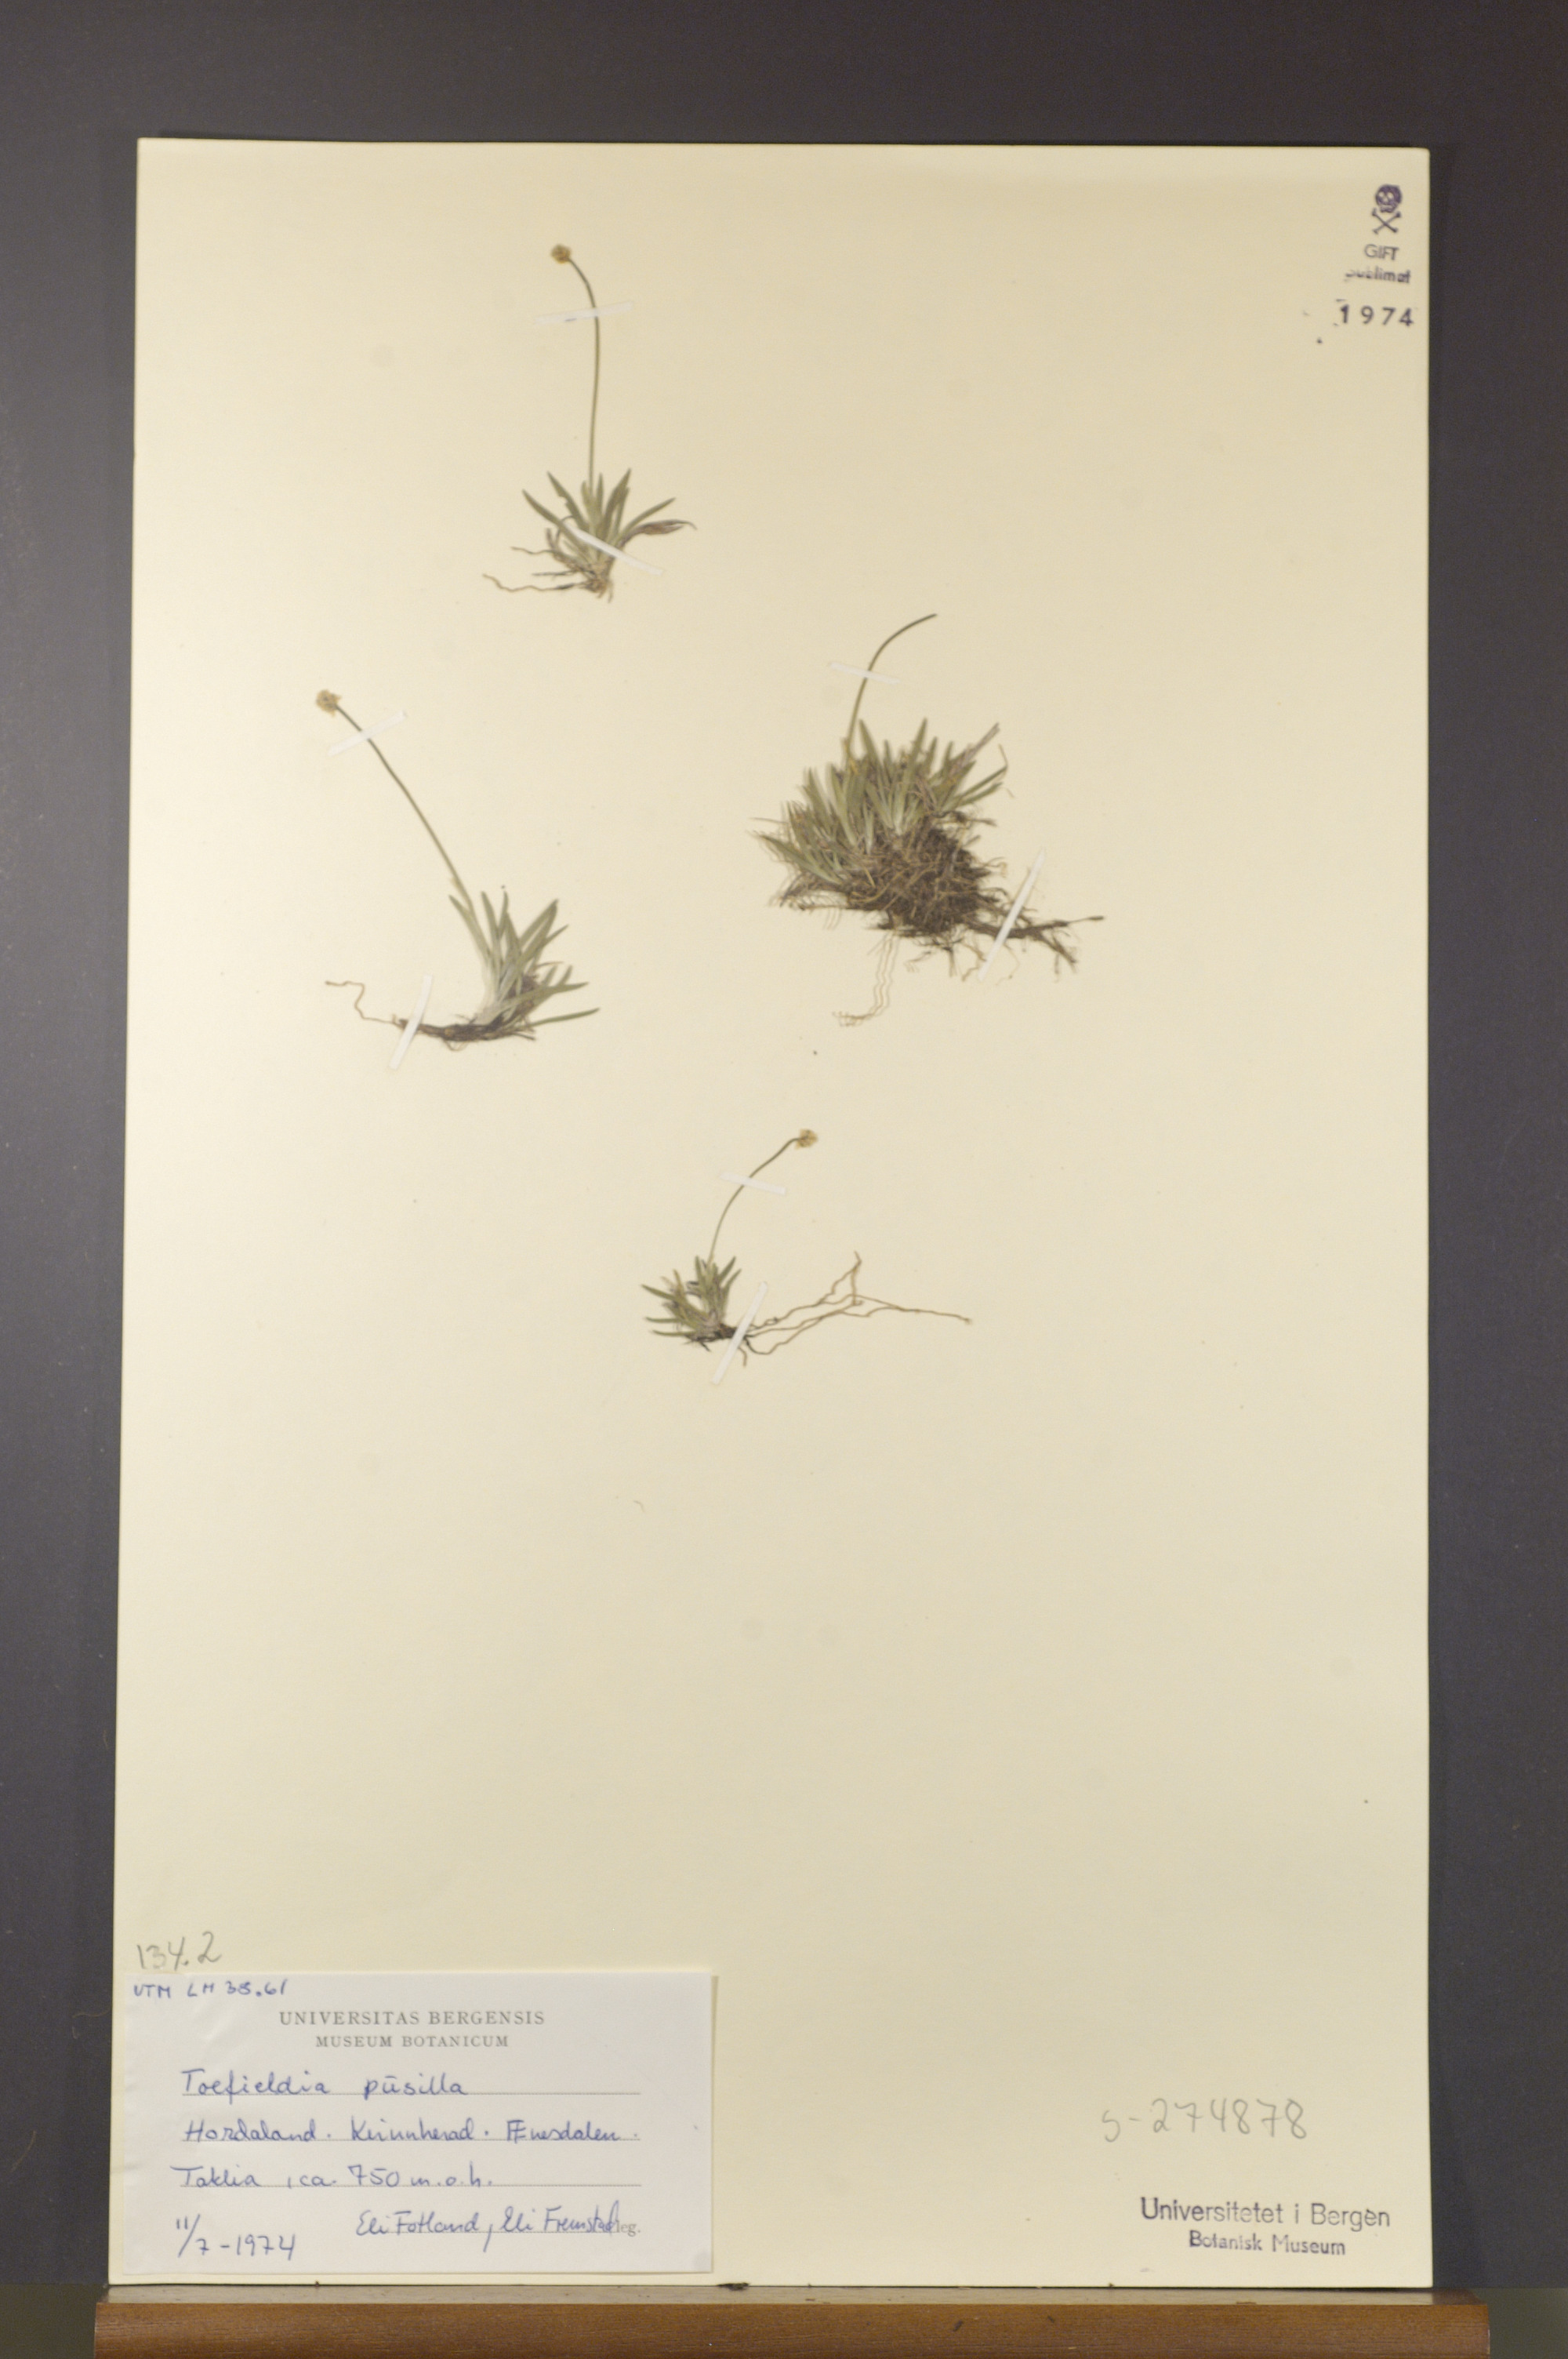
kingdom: Plantae
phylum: Tracheophyta
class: Liliopsida
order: Alismatales
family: Tofieldiaceae
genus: Tofieldia
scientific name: Tofieldia pusilla
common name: Scottish false asphodel
